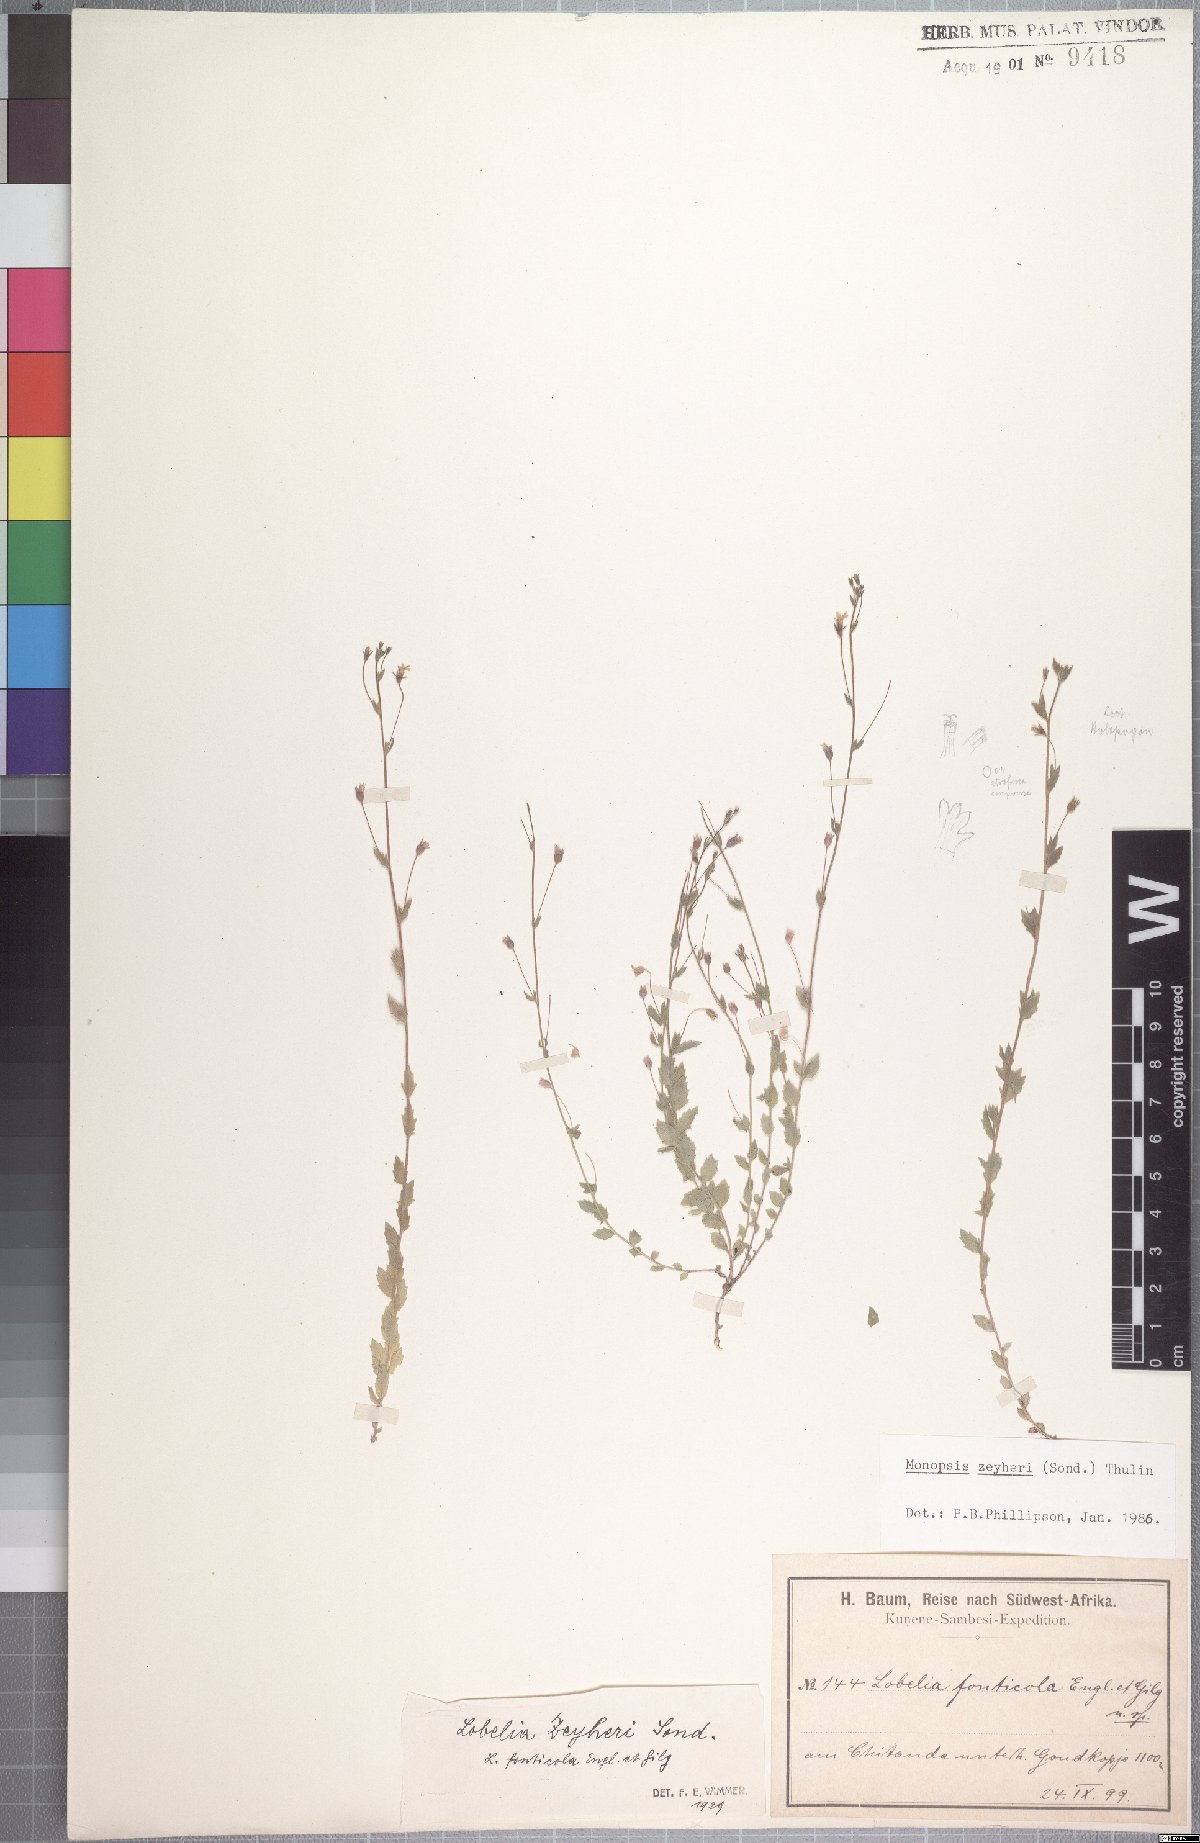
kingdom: Plantae
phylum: Tracheophyta
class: Magnoliopsida
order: Asterales
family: Campanulaceae
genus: Monopsis
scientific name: Monopsis zeyheri
